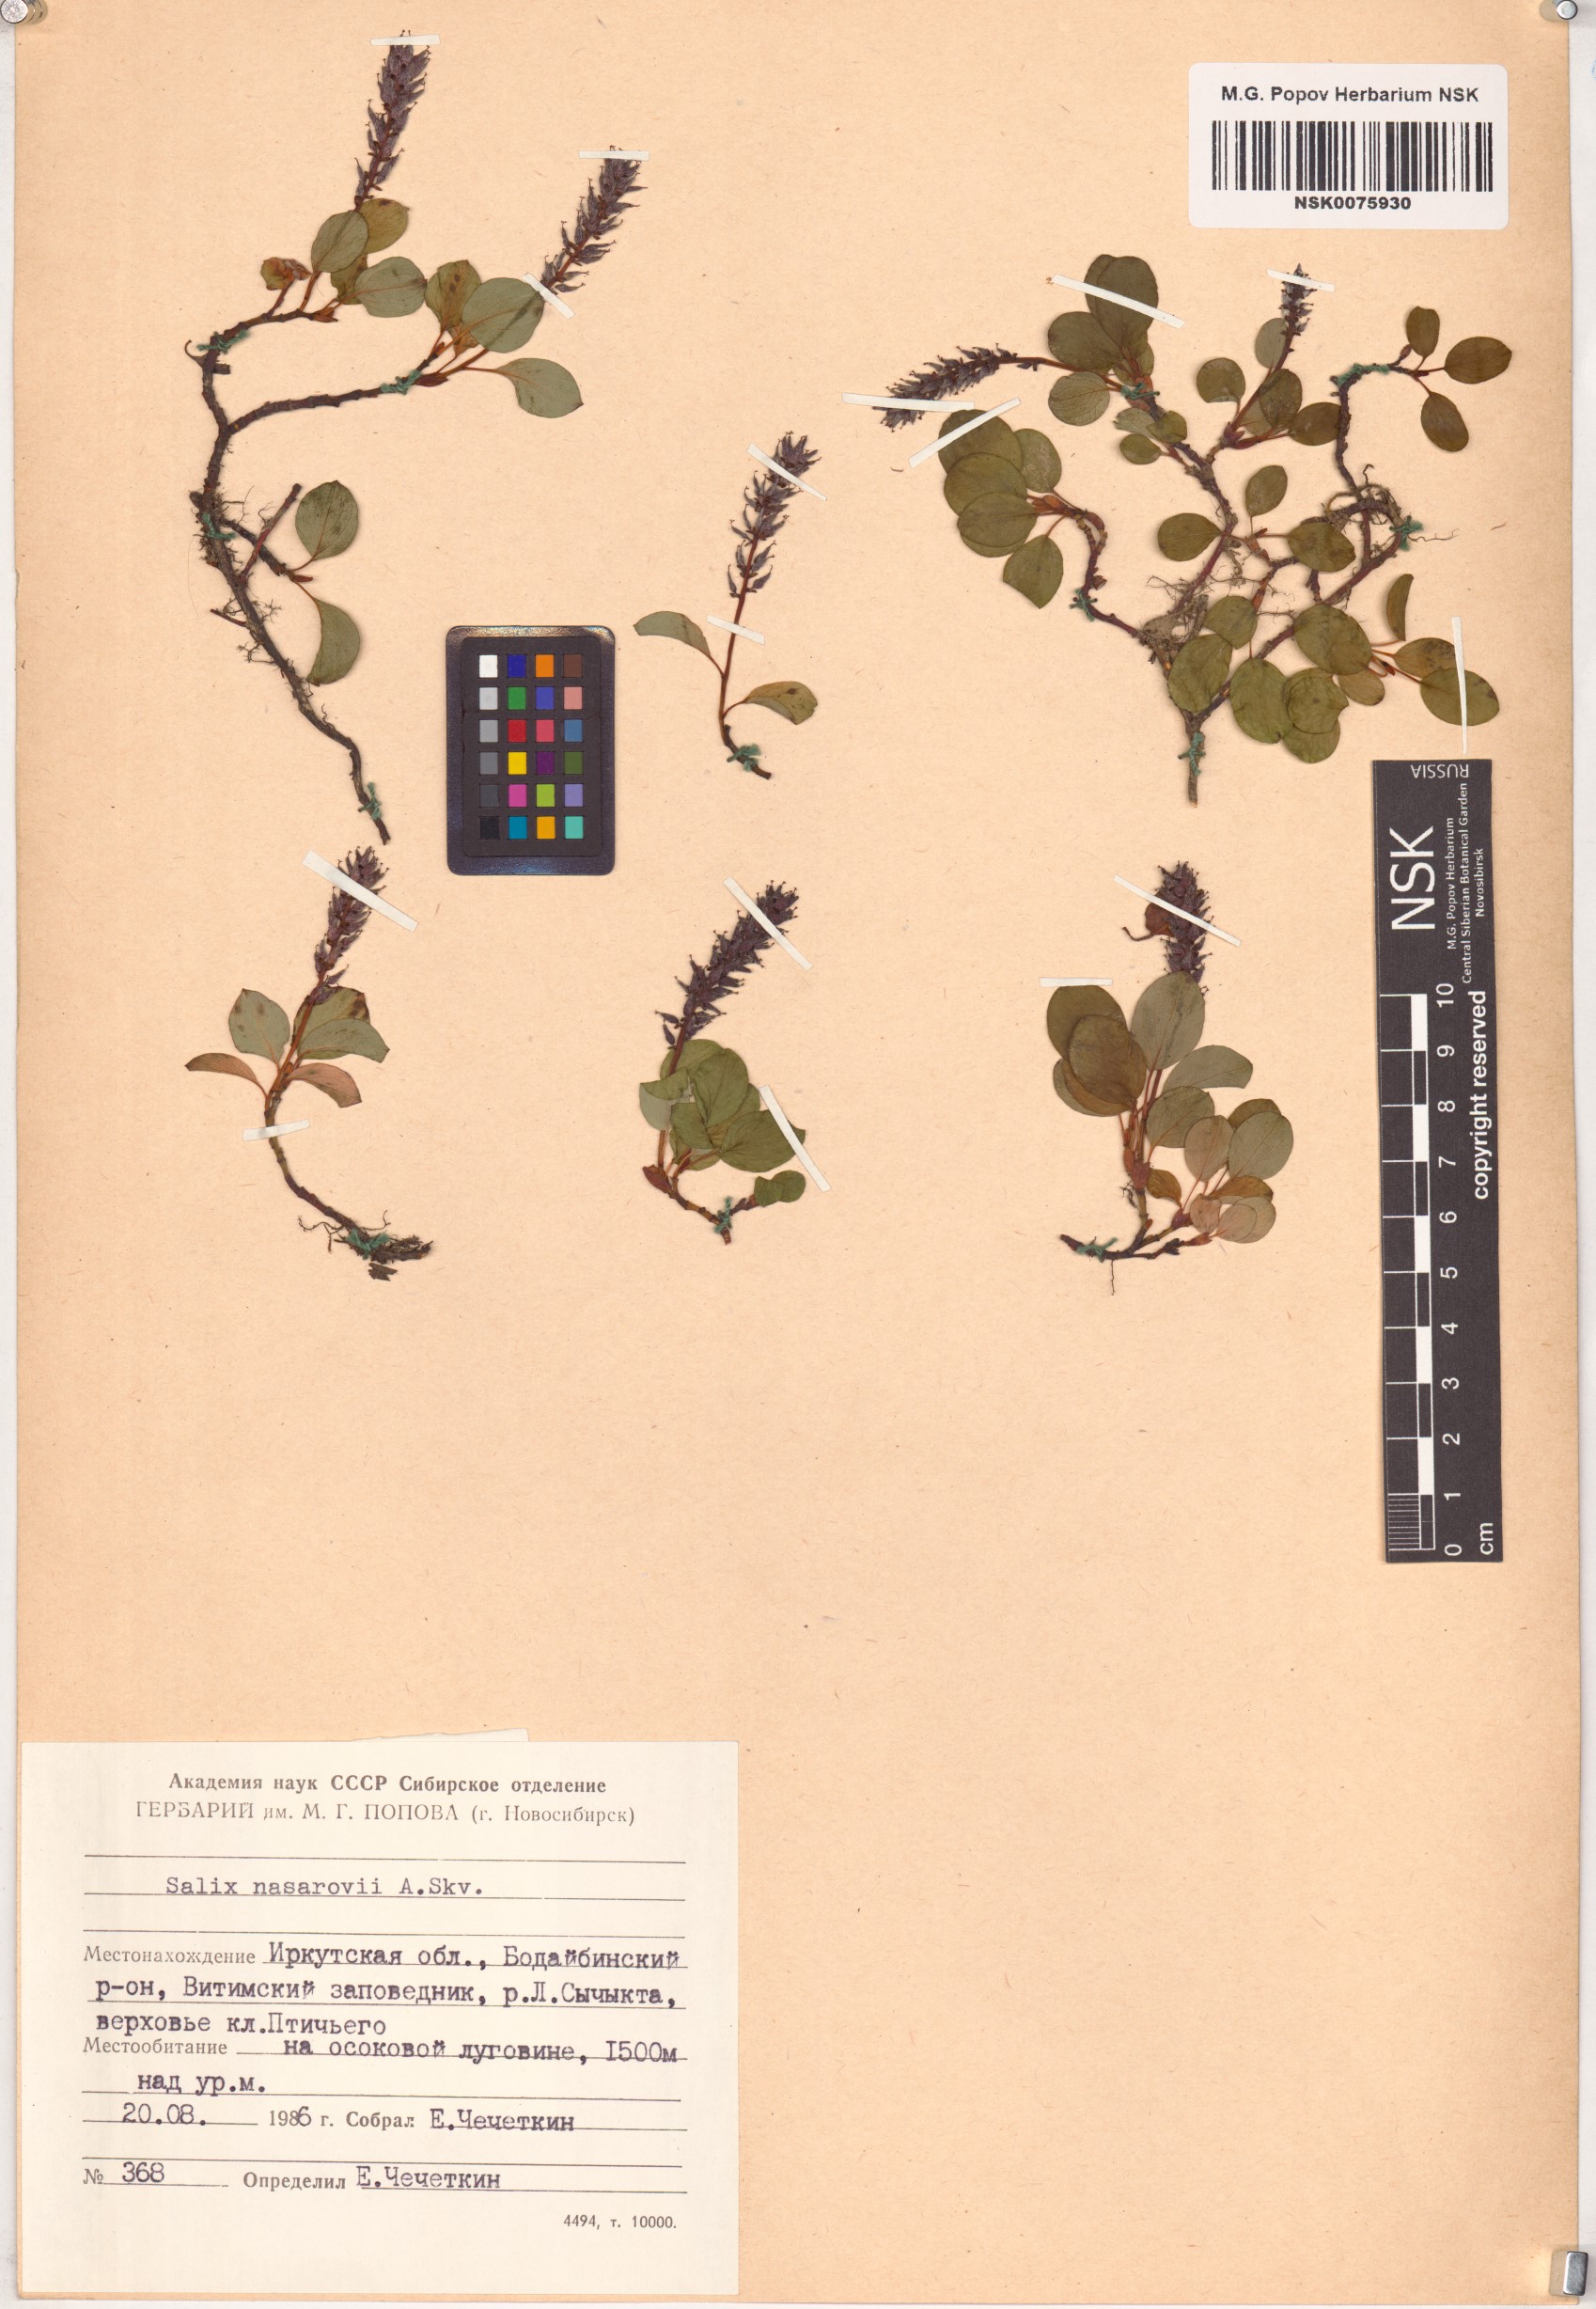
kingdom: Plantae
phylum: Tracheophyta
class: Magnoliopsida
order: Malpighiales
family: Salicaceae
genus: Salix
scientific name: Salix nasarovii
